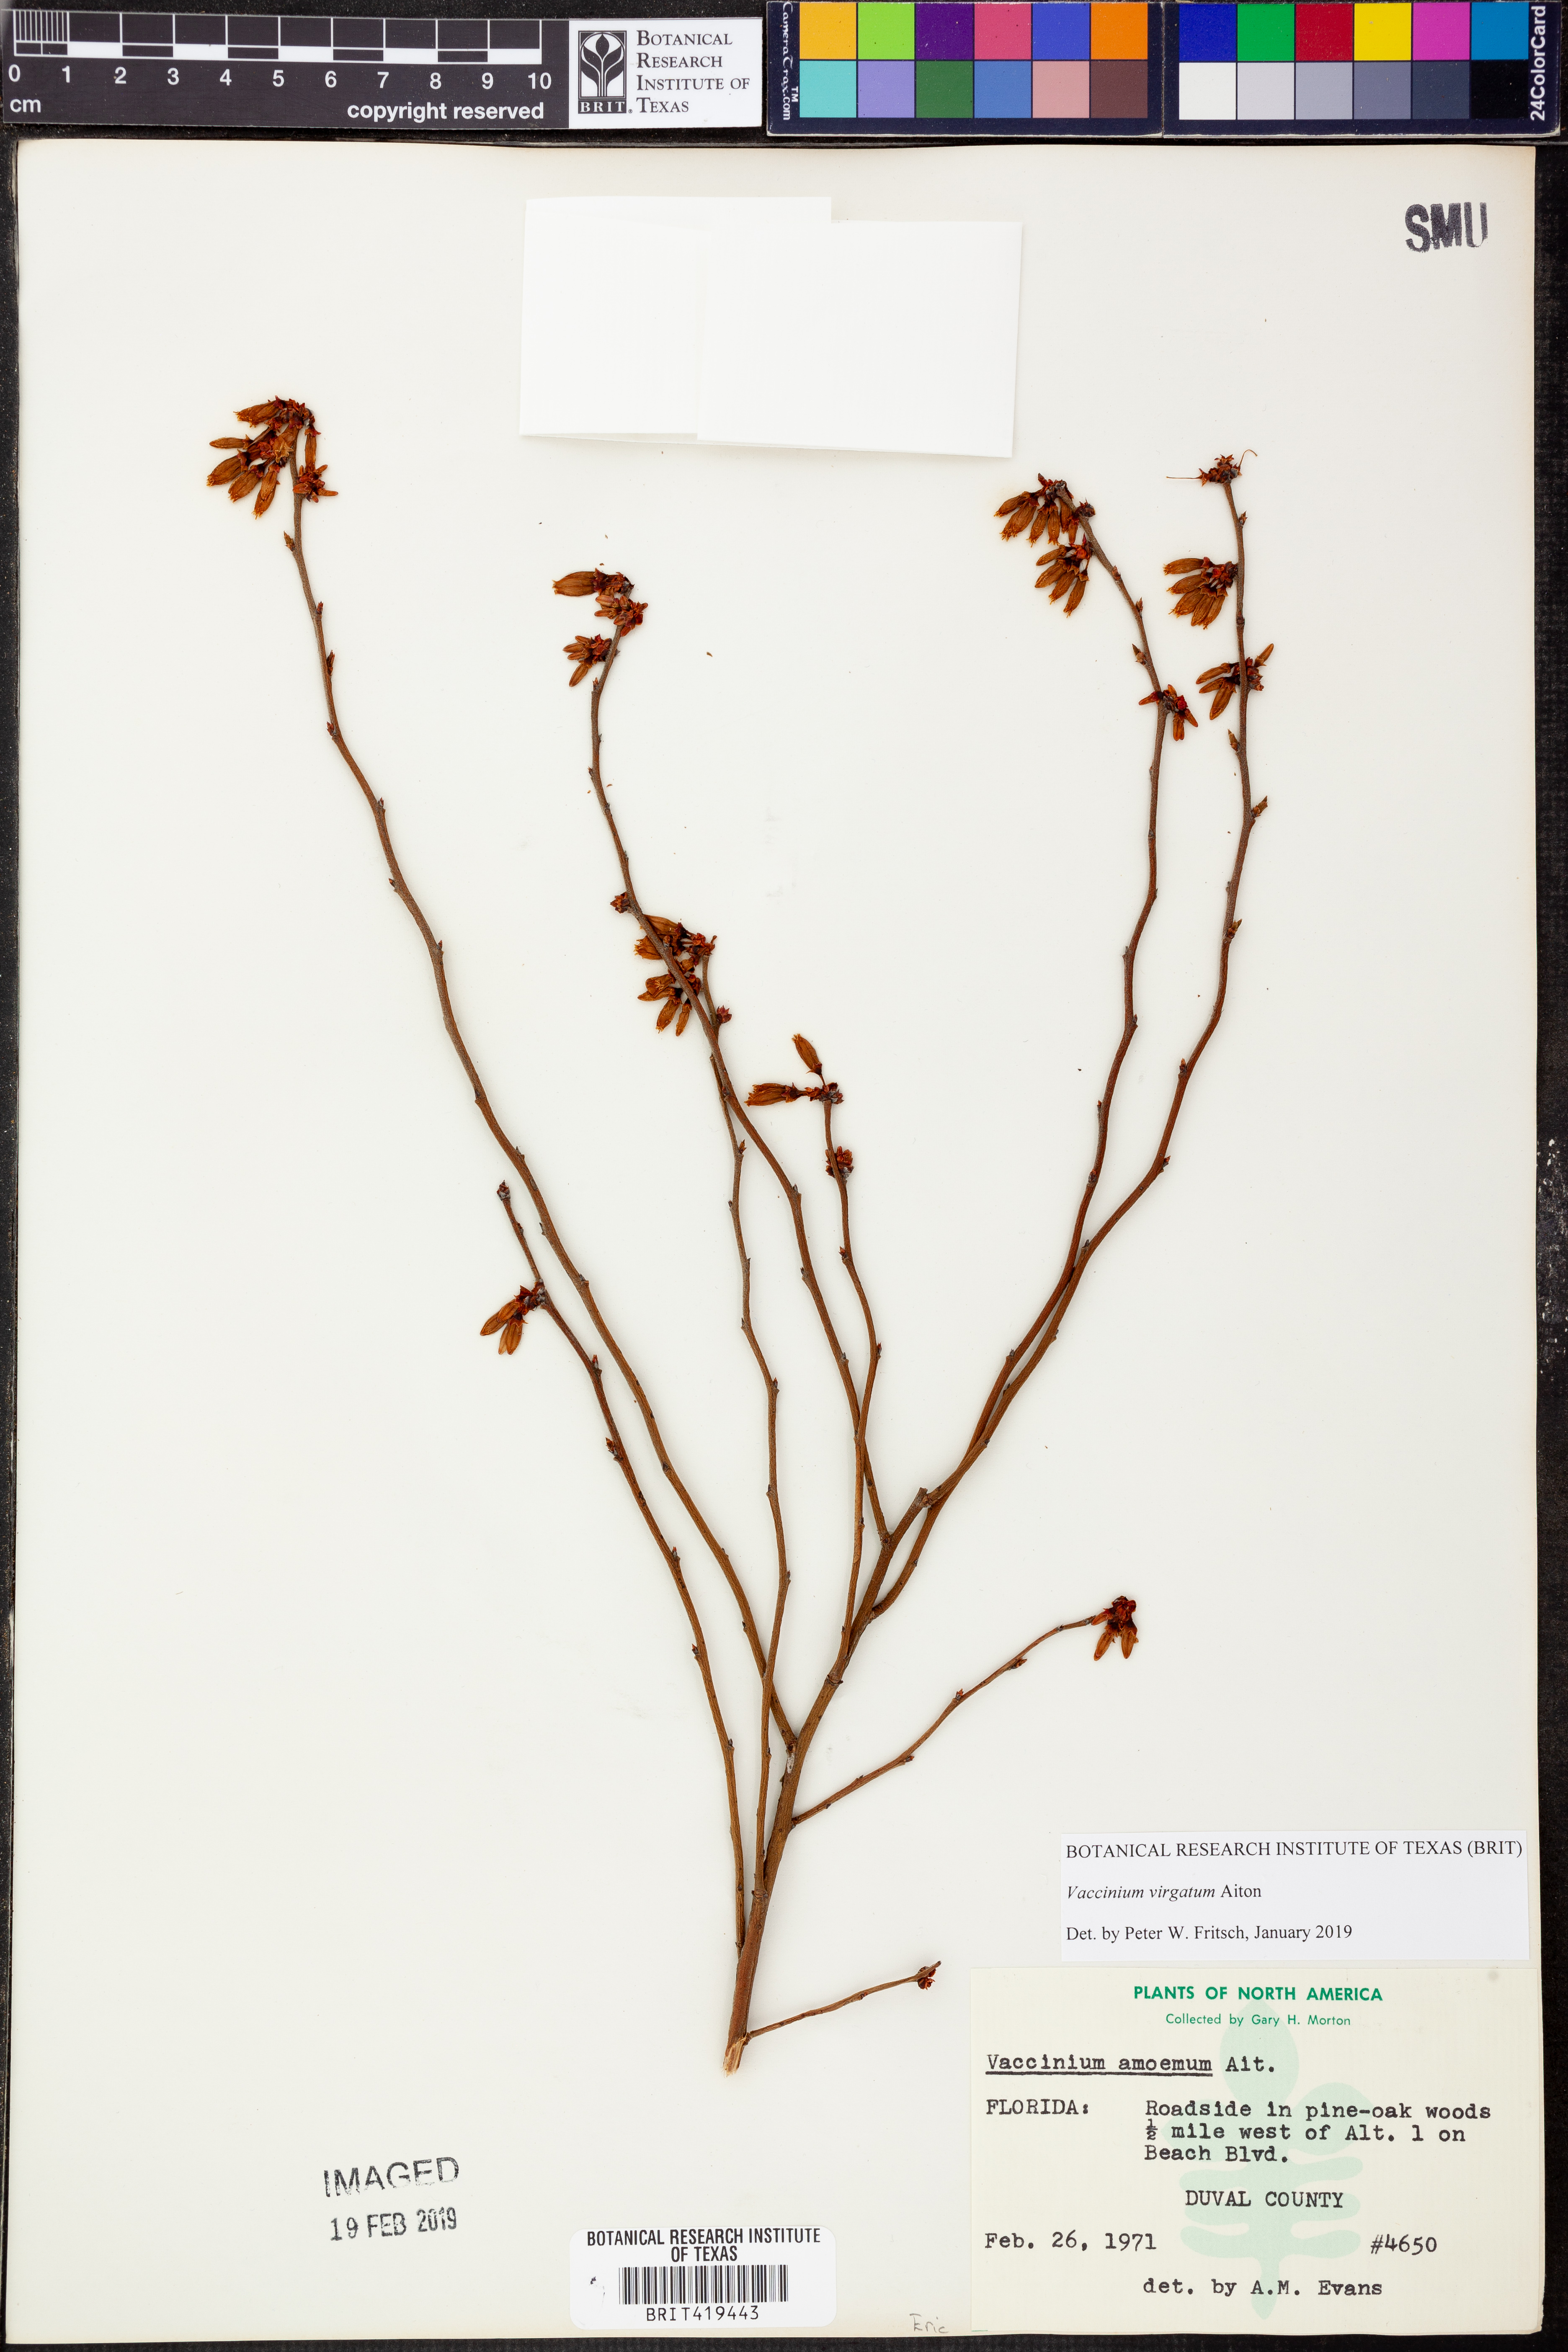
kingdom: Plantae
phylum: Tracheophyta
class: Magnoliopsida
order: Ericales
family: Ericaceae
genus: Vaccinium
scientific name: Vaccinium corymbosum
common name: Blueberry
